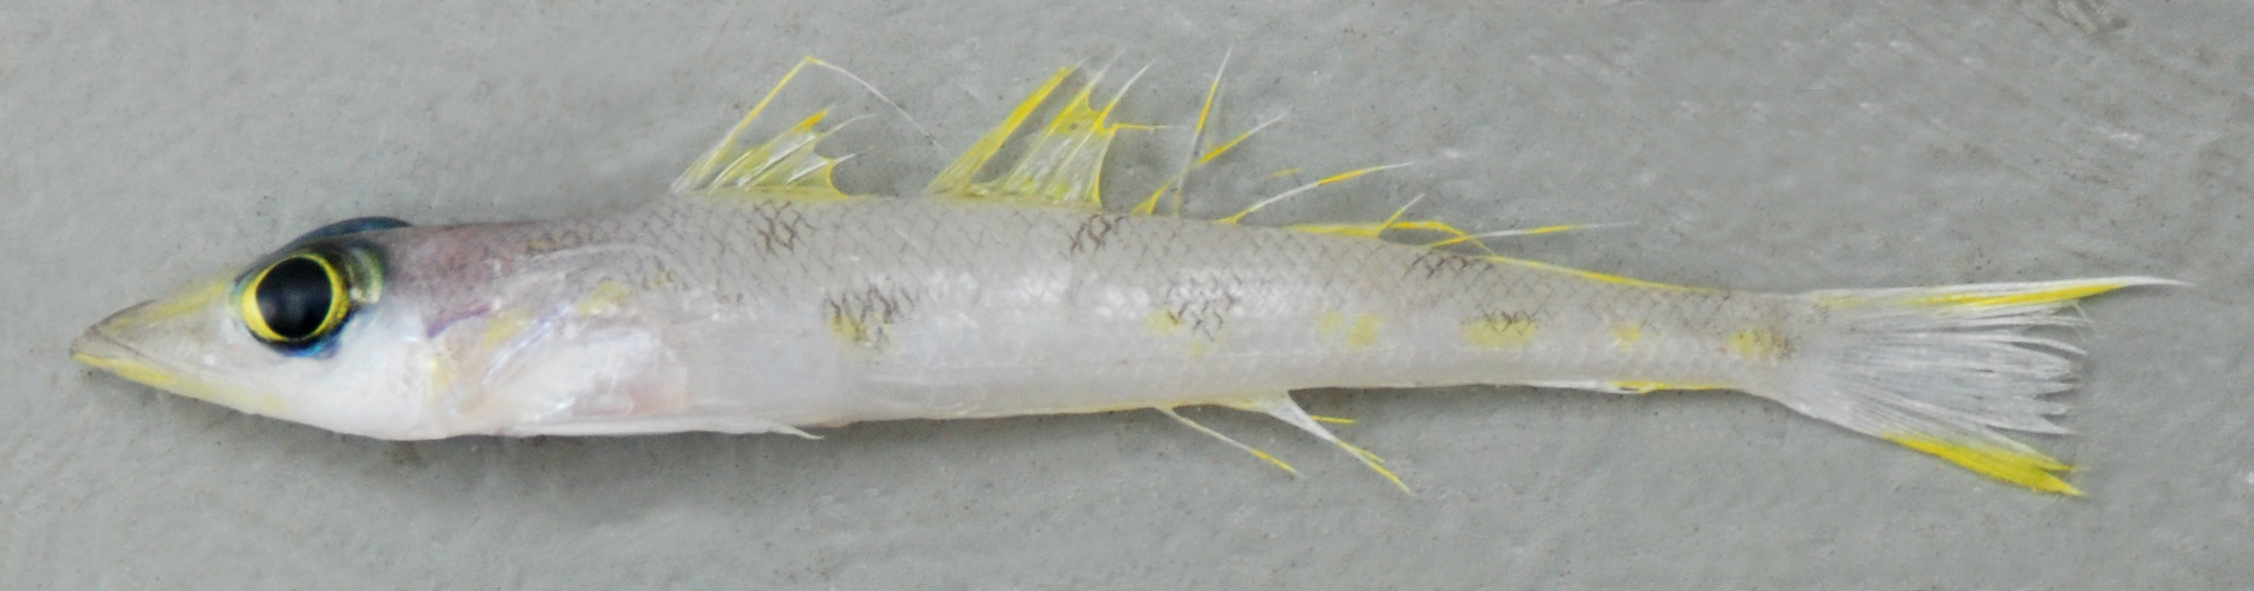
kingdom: Animalia
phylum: Chordata
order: Perciformes
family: Percophidae
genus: Bembrops
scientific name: Bembrops nematopterus
